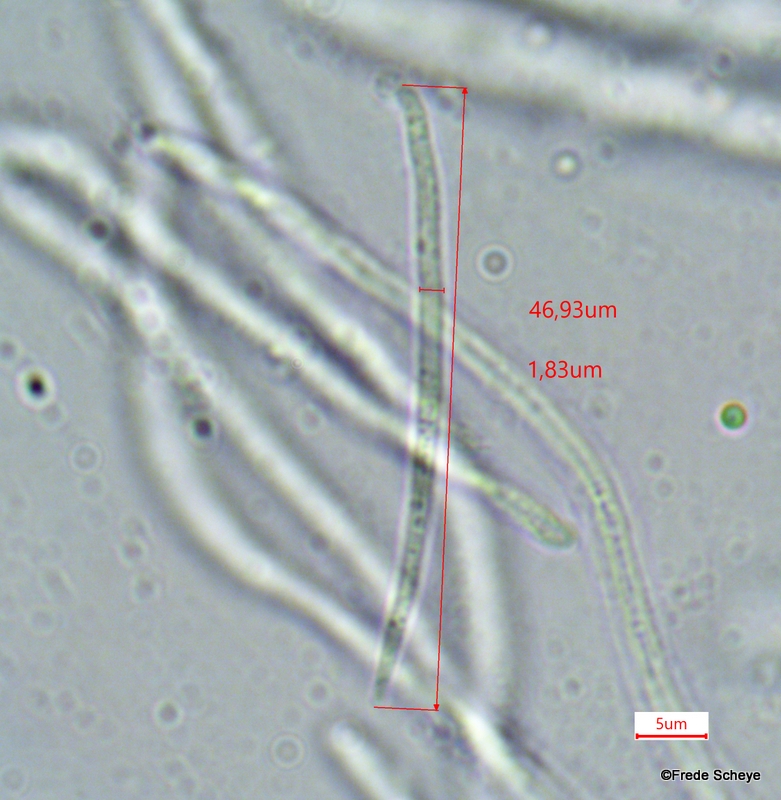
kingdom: Fungi
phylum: Ascomycota
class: Leotiomycetes
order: Rhytismatales
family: Rhytismataceae
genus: Lophodermium
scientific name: Lophodermium typhinum
